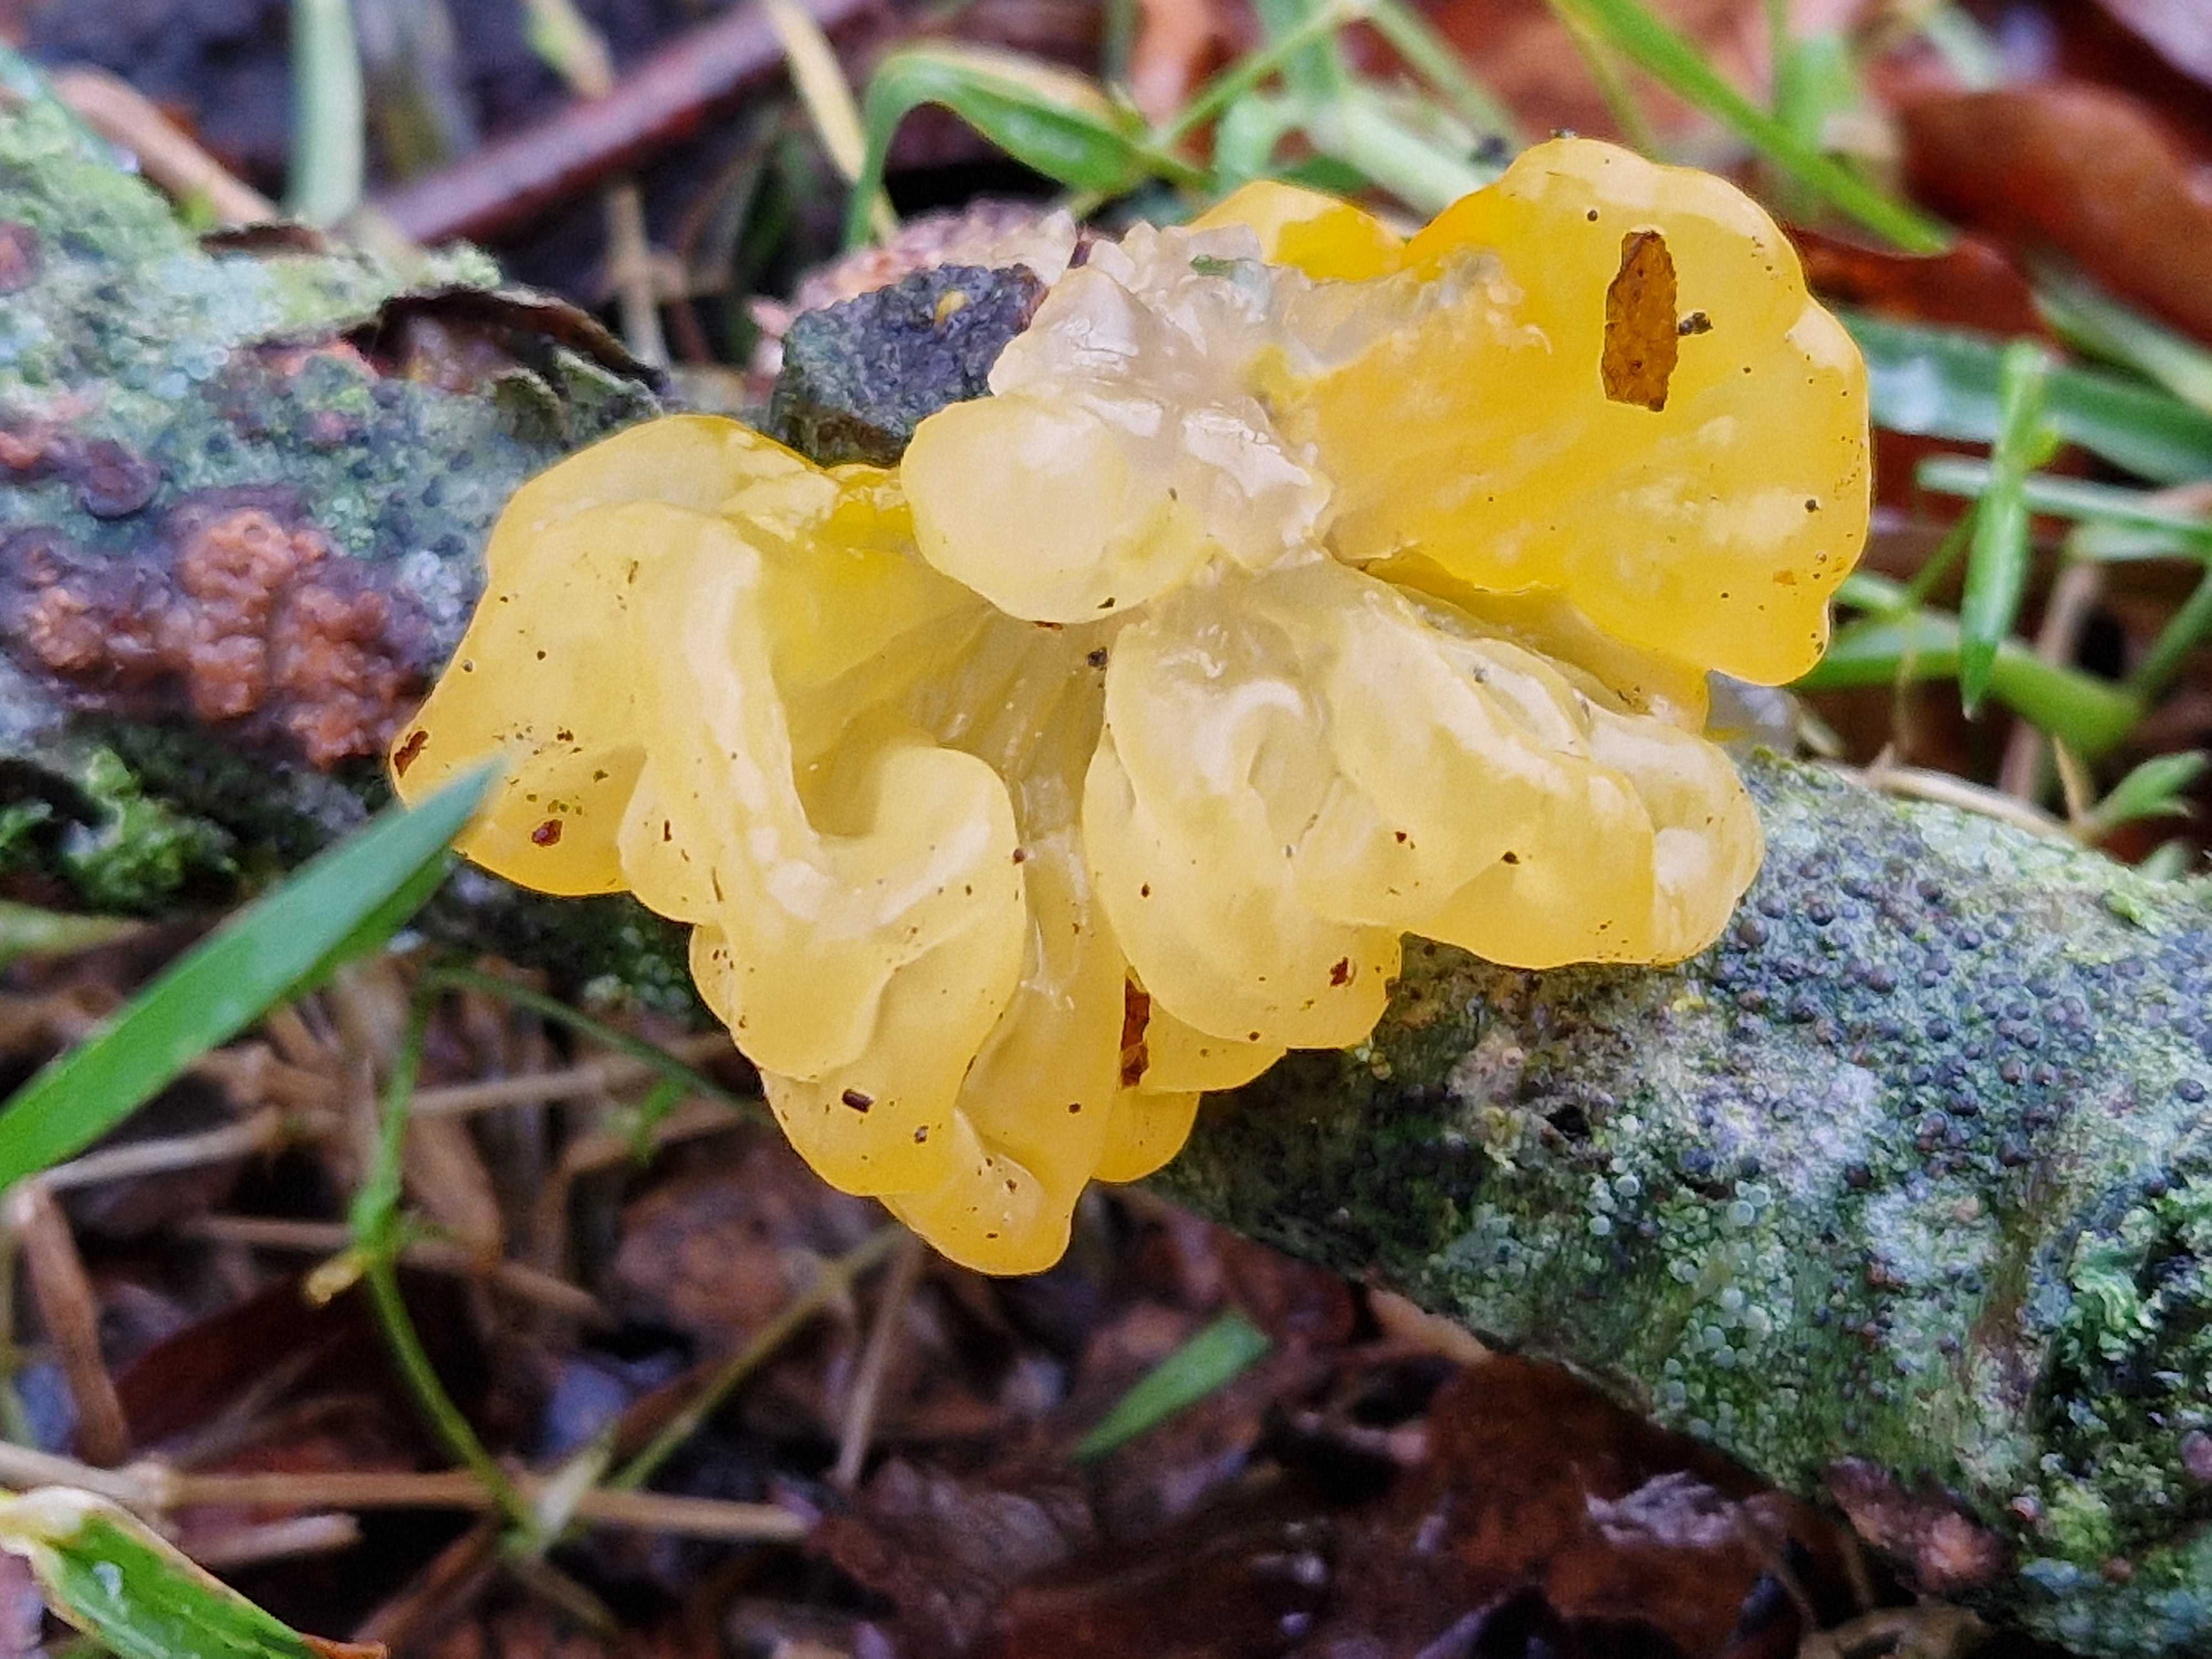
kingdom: Fungi
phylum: Basidiomycota
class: Tremellomycetes
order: Tremellales
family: Tremellaceae
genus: Tremella
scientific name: Tremella mesenterica
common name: gul bævresvamp
